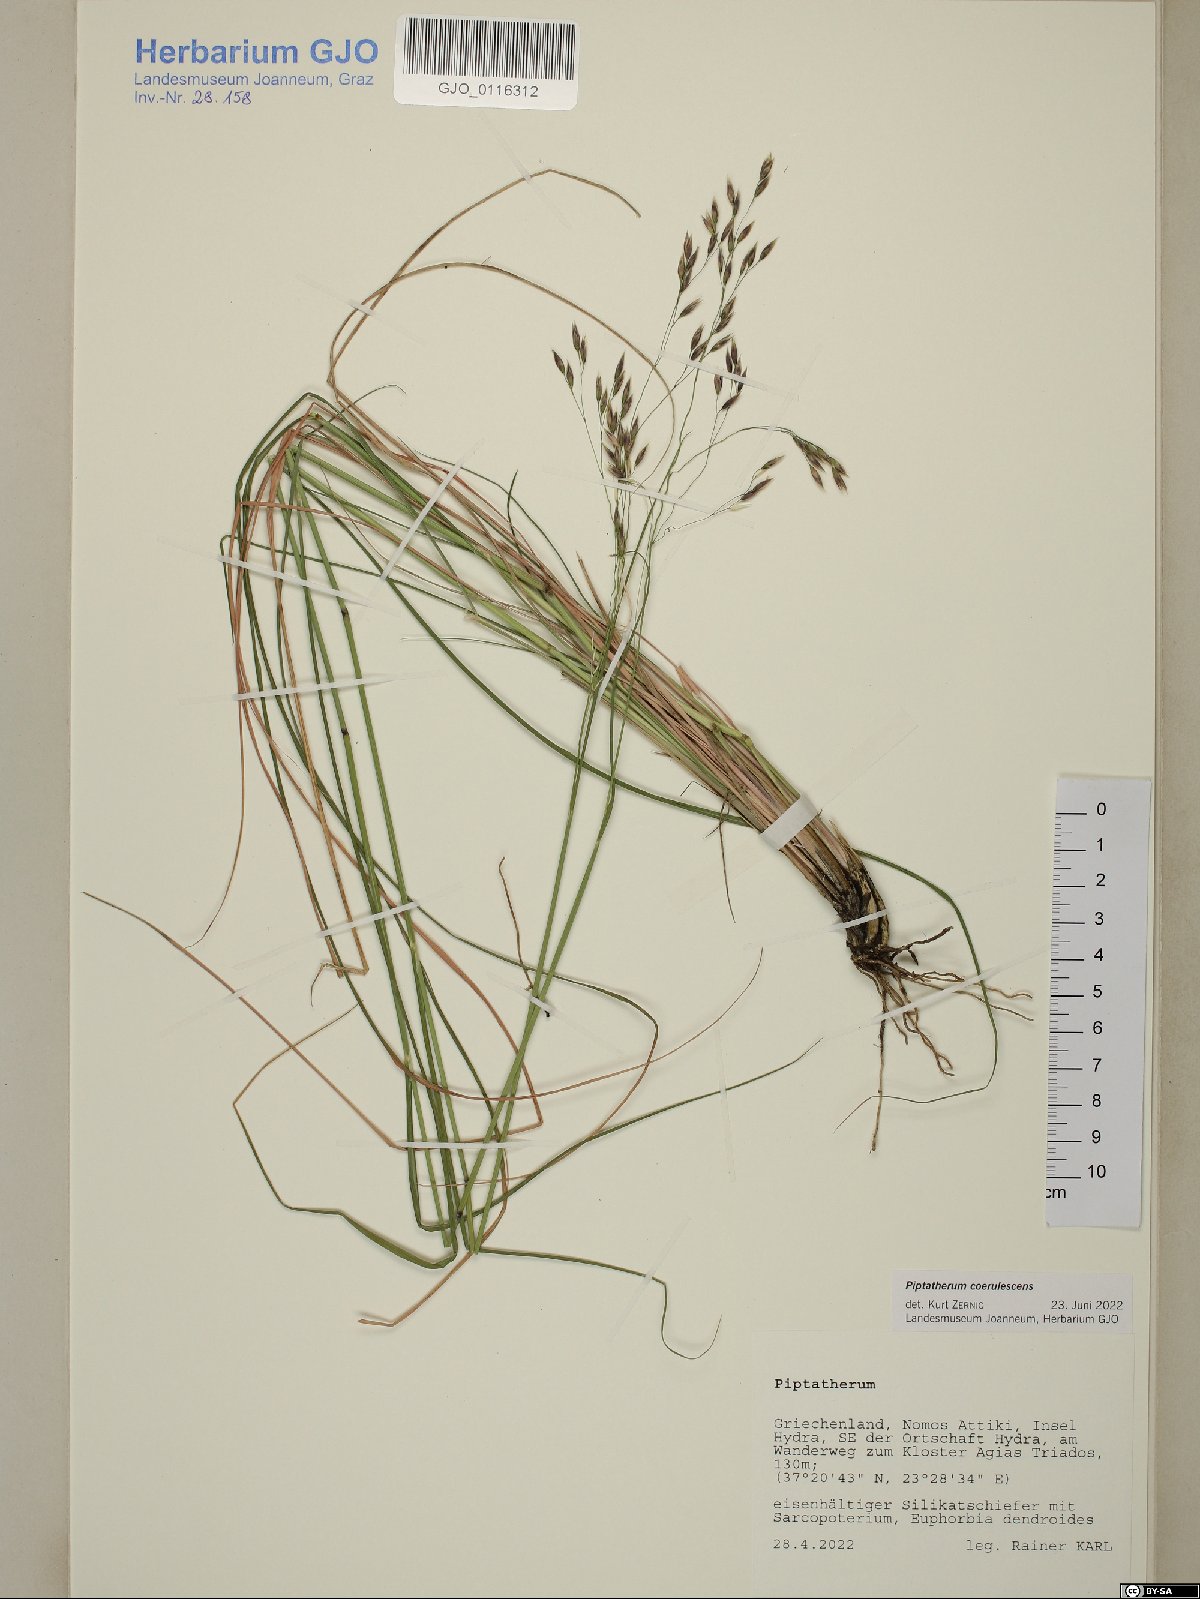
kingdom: Plantae
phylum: Tracheophyta
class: Liliopsida
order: Poales
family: Poaceae
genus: Piptatherum
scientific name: Piptatherum coerulescens
